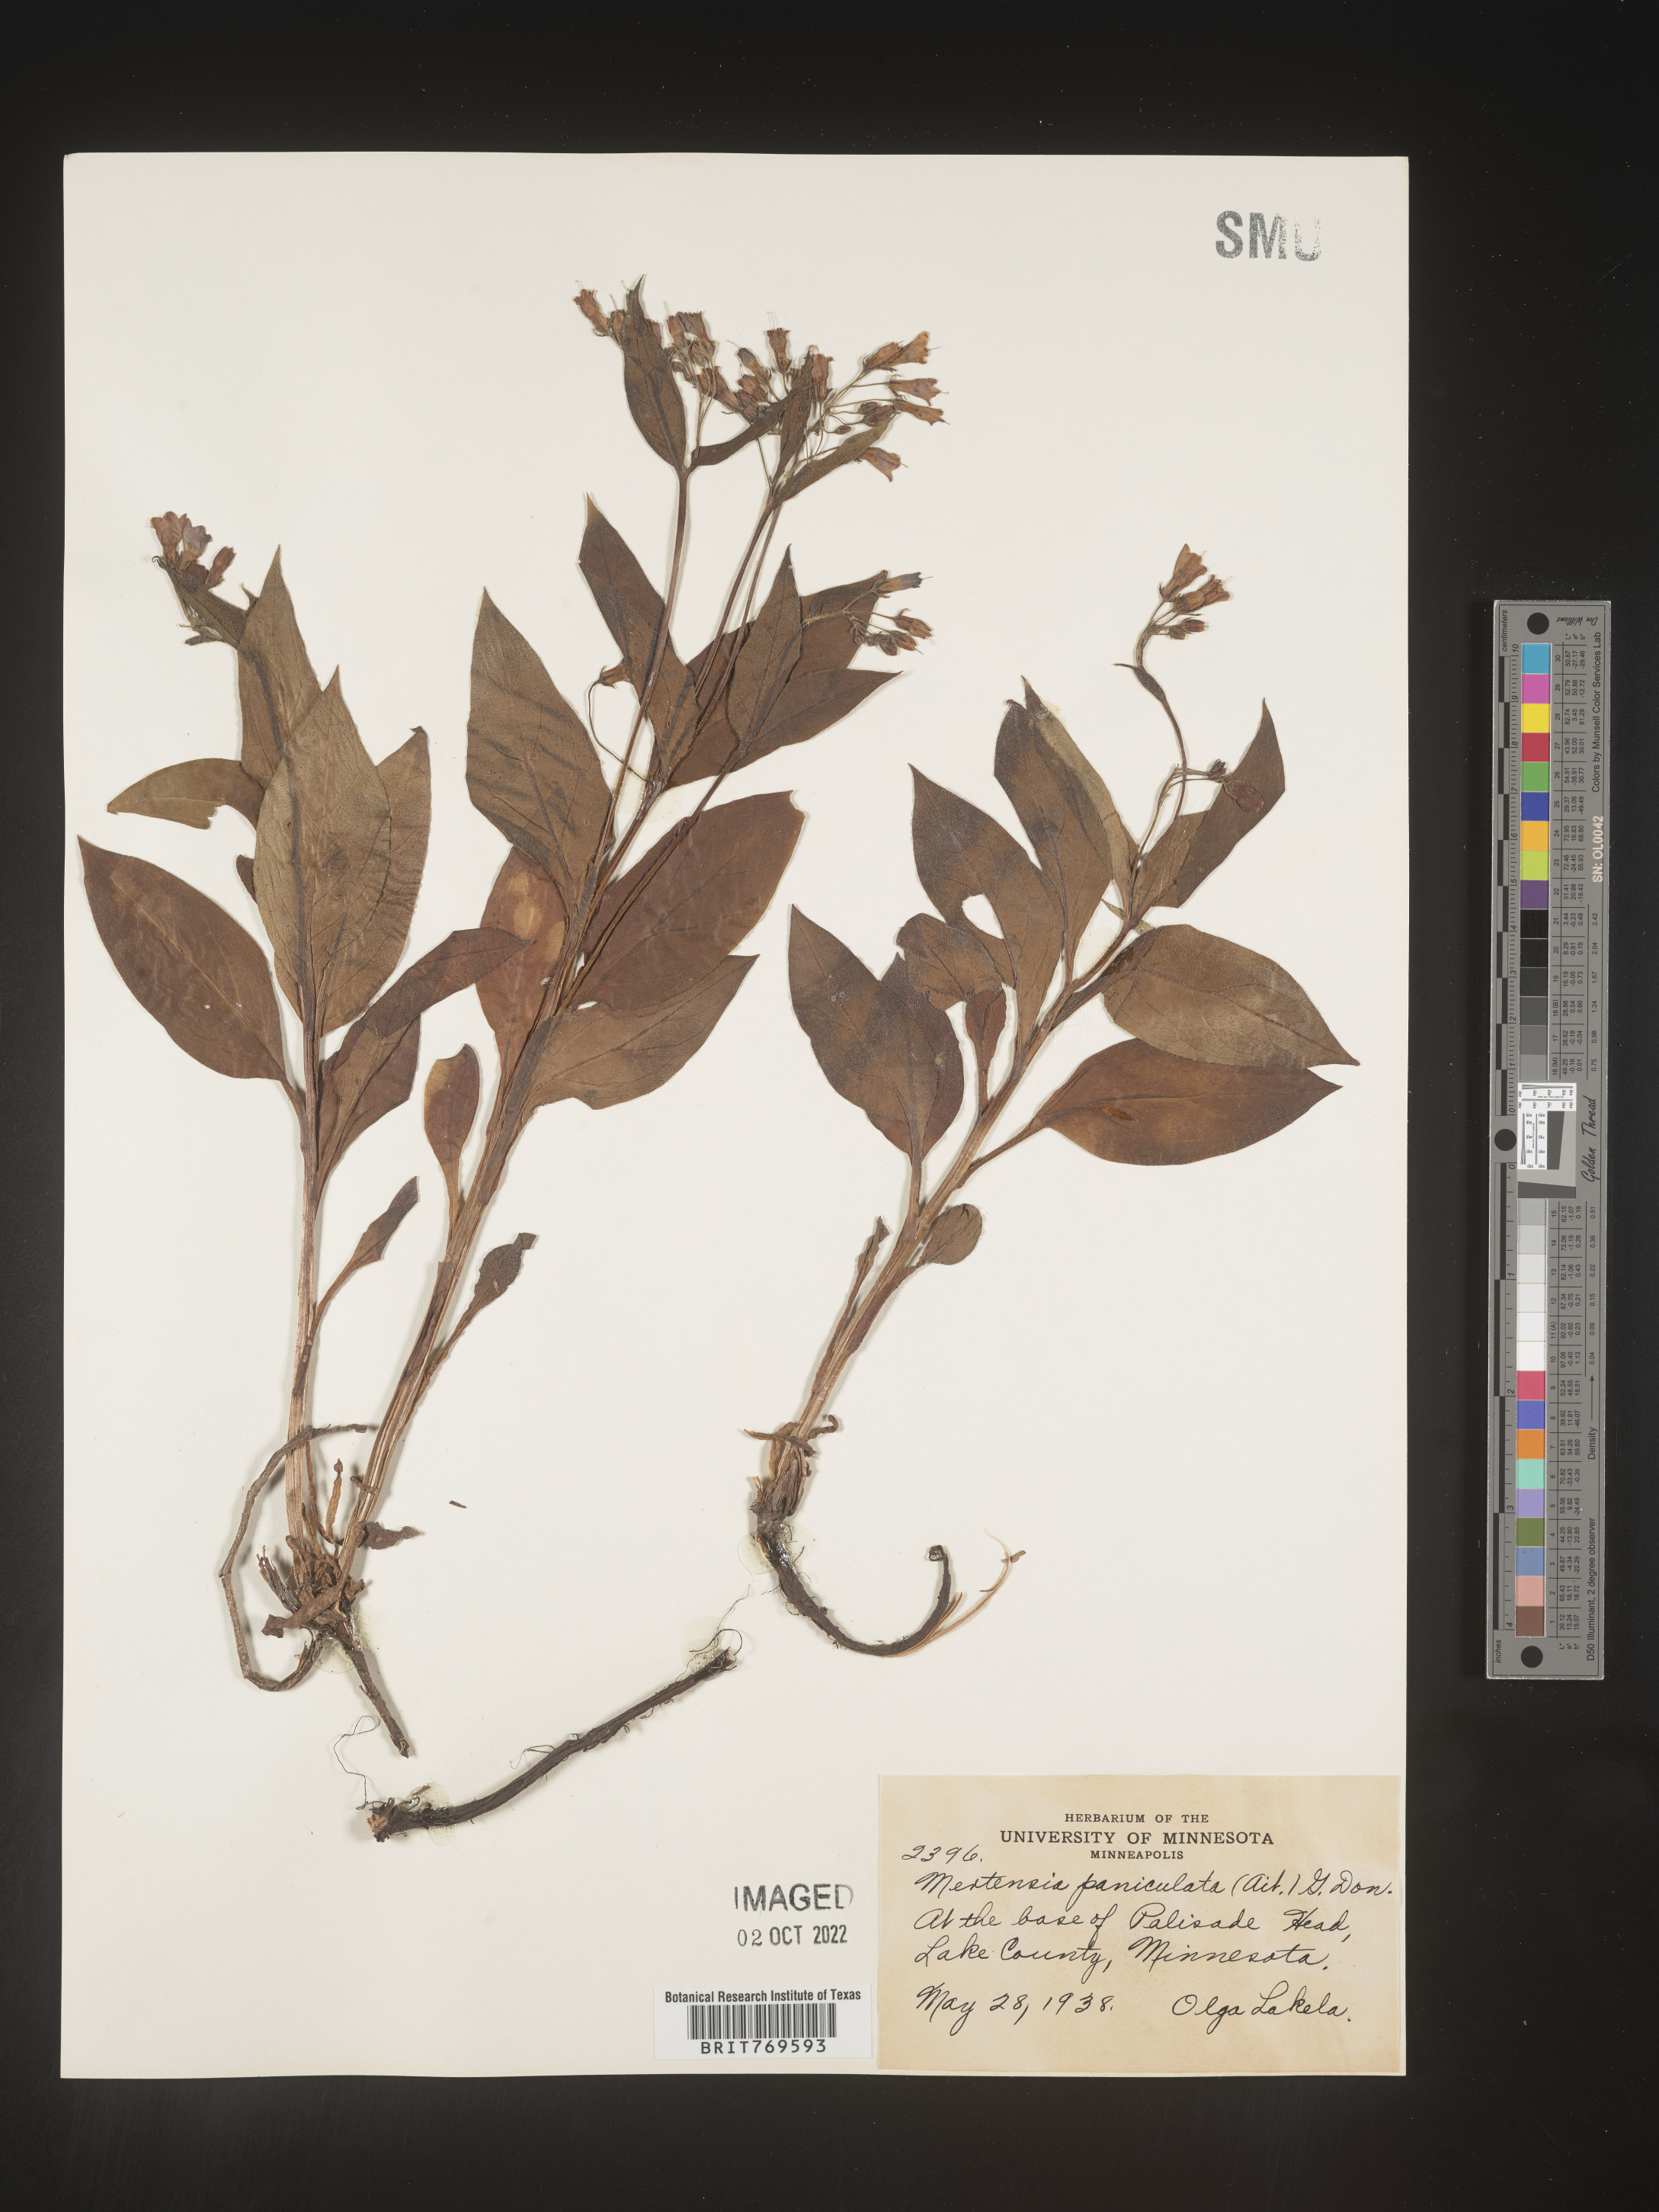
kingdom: Plantae
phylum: Tracheophyta
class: Magnoliopsida
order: Boraginales
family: Boraginaceae
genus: Mertensia
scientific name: Mertensia
